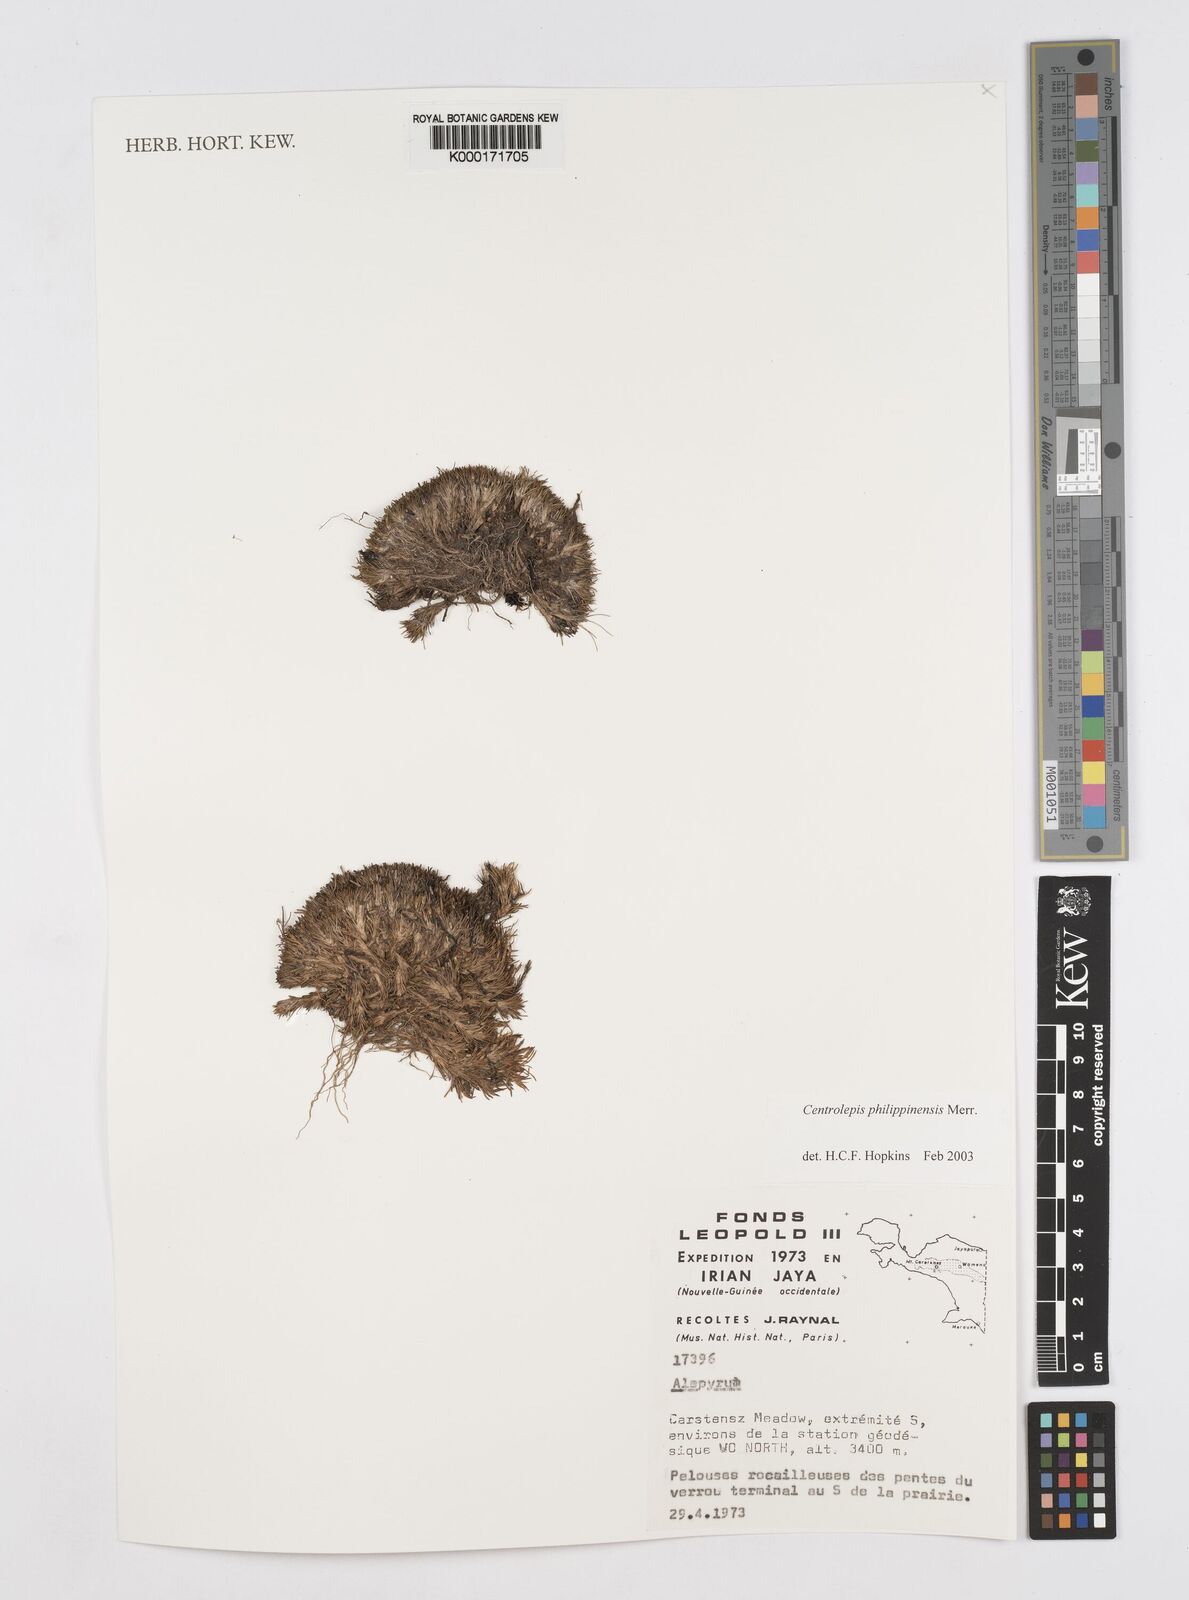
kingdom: Plantae
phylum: Tracheophyta
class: Liliopsida
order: Poales
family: Restionaceae
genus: Centrolepis
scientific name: Centrolepis philippinensis
